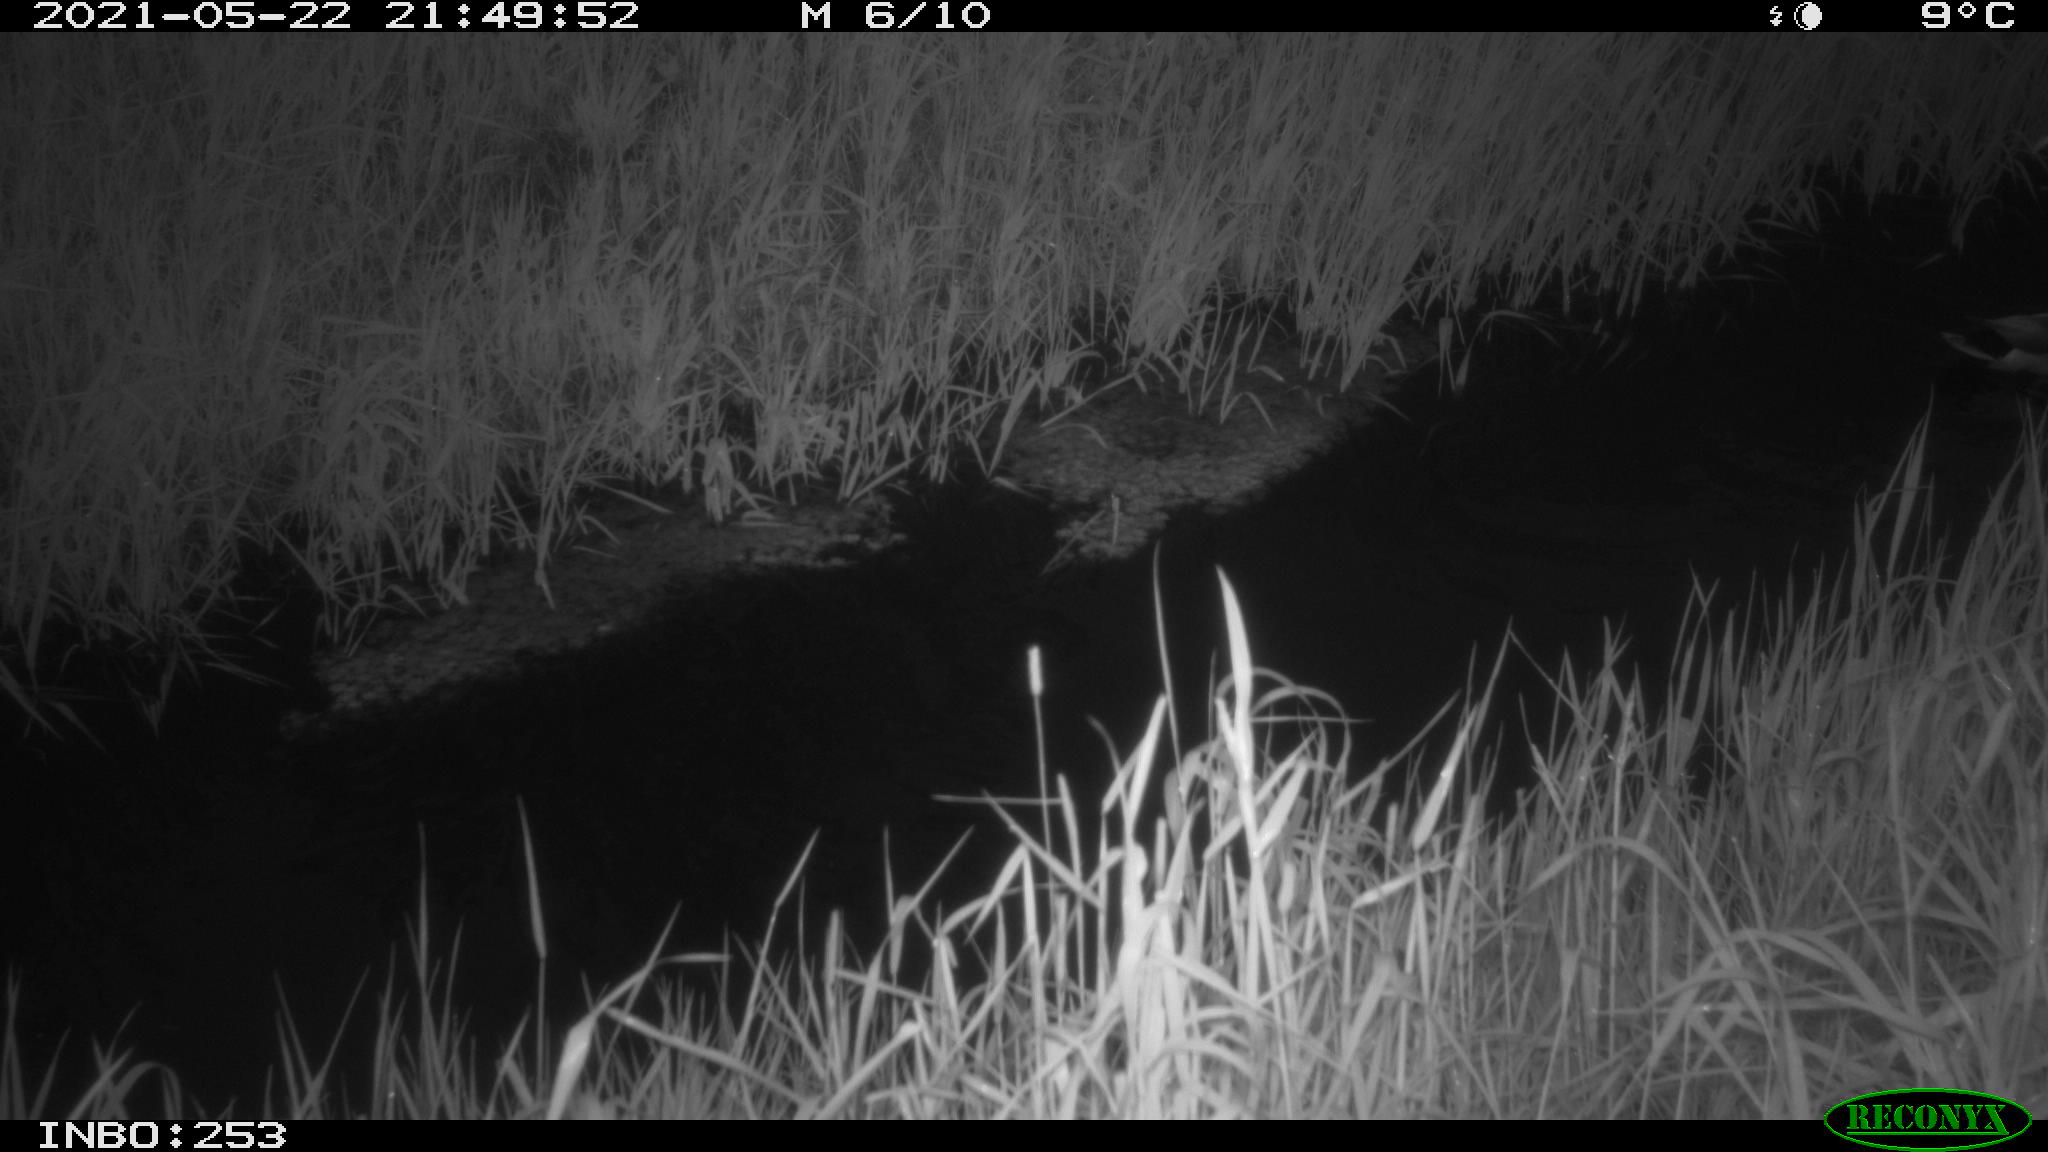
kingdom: Animalia
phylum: Chordata
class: Aves
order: Anseriformes
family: Anatidae
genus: Anas
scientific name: Anas platyrhynchos
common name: Mallard
